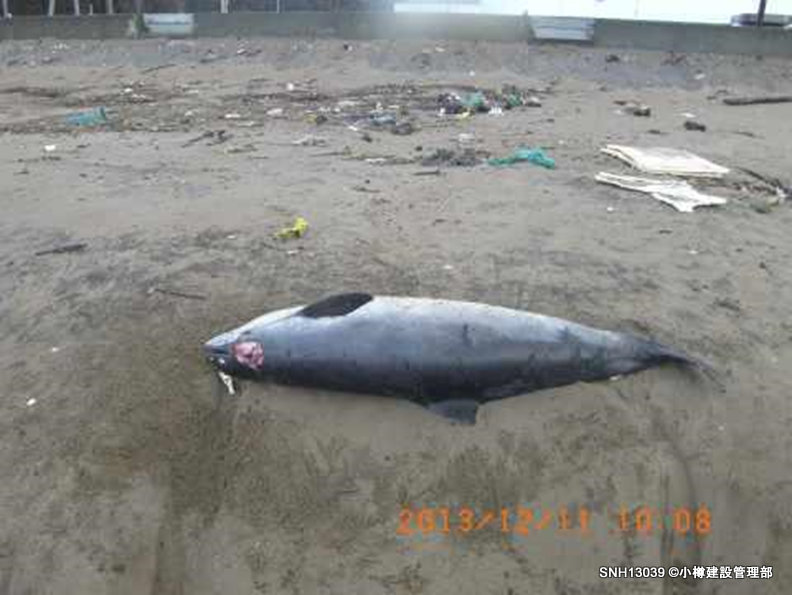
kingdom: Animalia
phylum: Chordata
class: Mammalia
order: Cetacea
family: Phocoenidae
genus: Phocoena
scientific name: Phocoena phocoena
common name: Harbour porpoise
